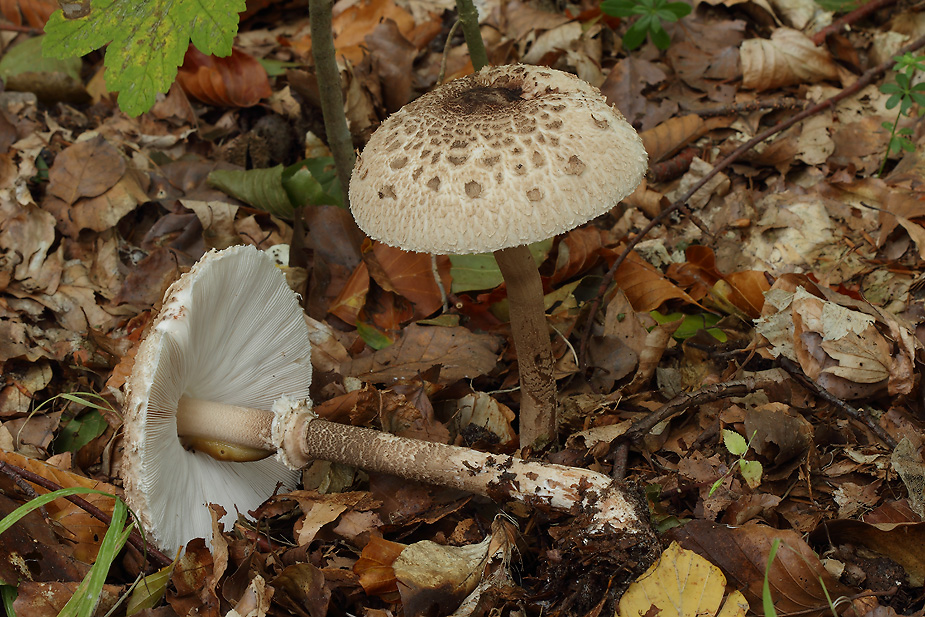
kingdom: Fungi
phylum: Basidiomycota
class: Agaricomycetes
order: Agaricales
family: Agaricaceae
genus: Macrolepiota
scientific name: Macrolepiota fuliginosa
